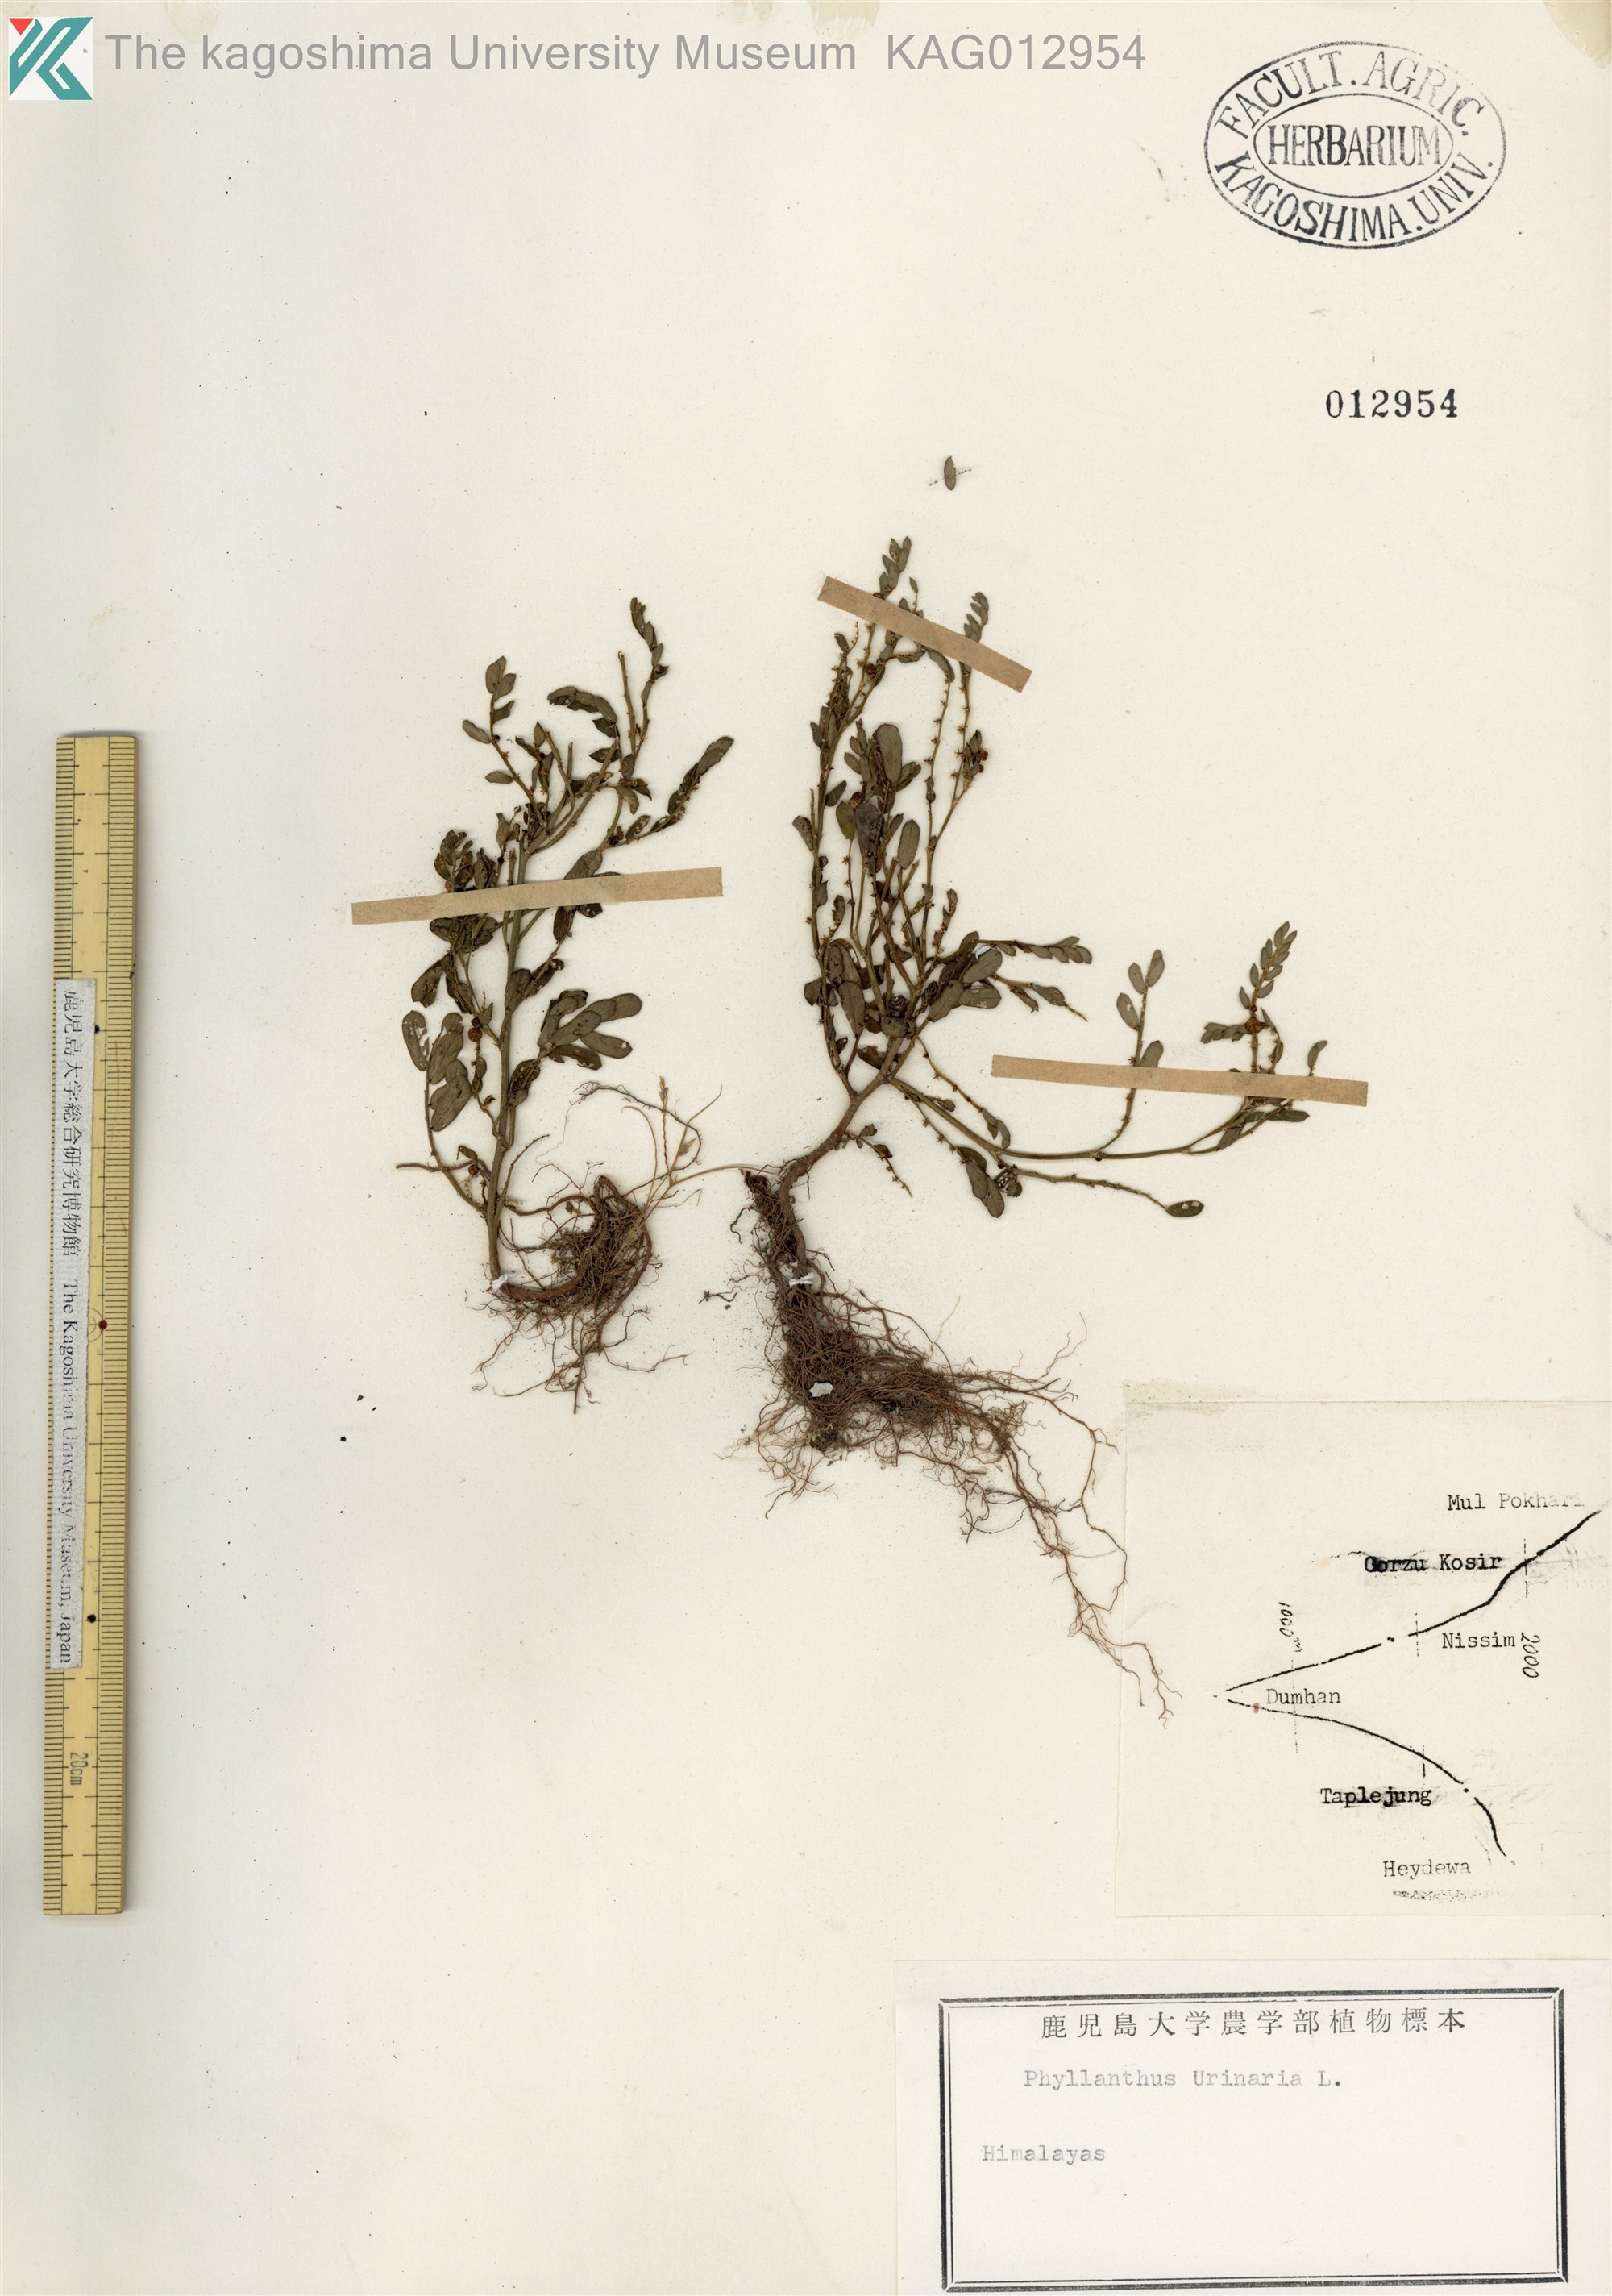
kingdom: Plantae
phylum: Tracheophyta
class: Magnoliopsida
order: Malpighiales
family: Phyllanthaceae
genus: Phyllanthus
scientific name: Phyllanthus urinaria
